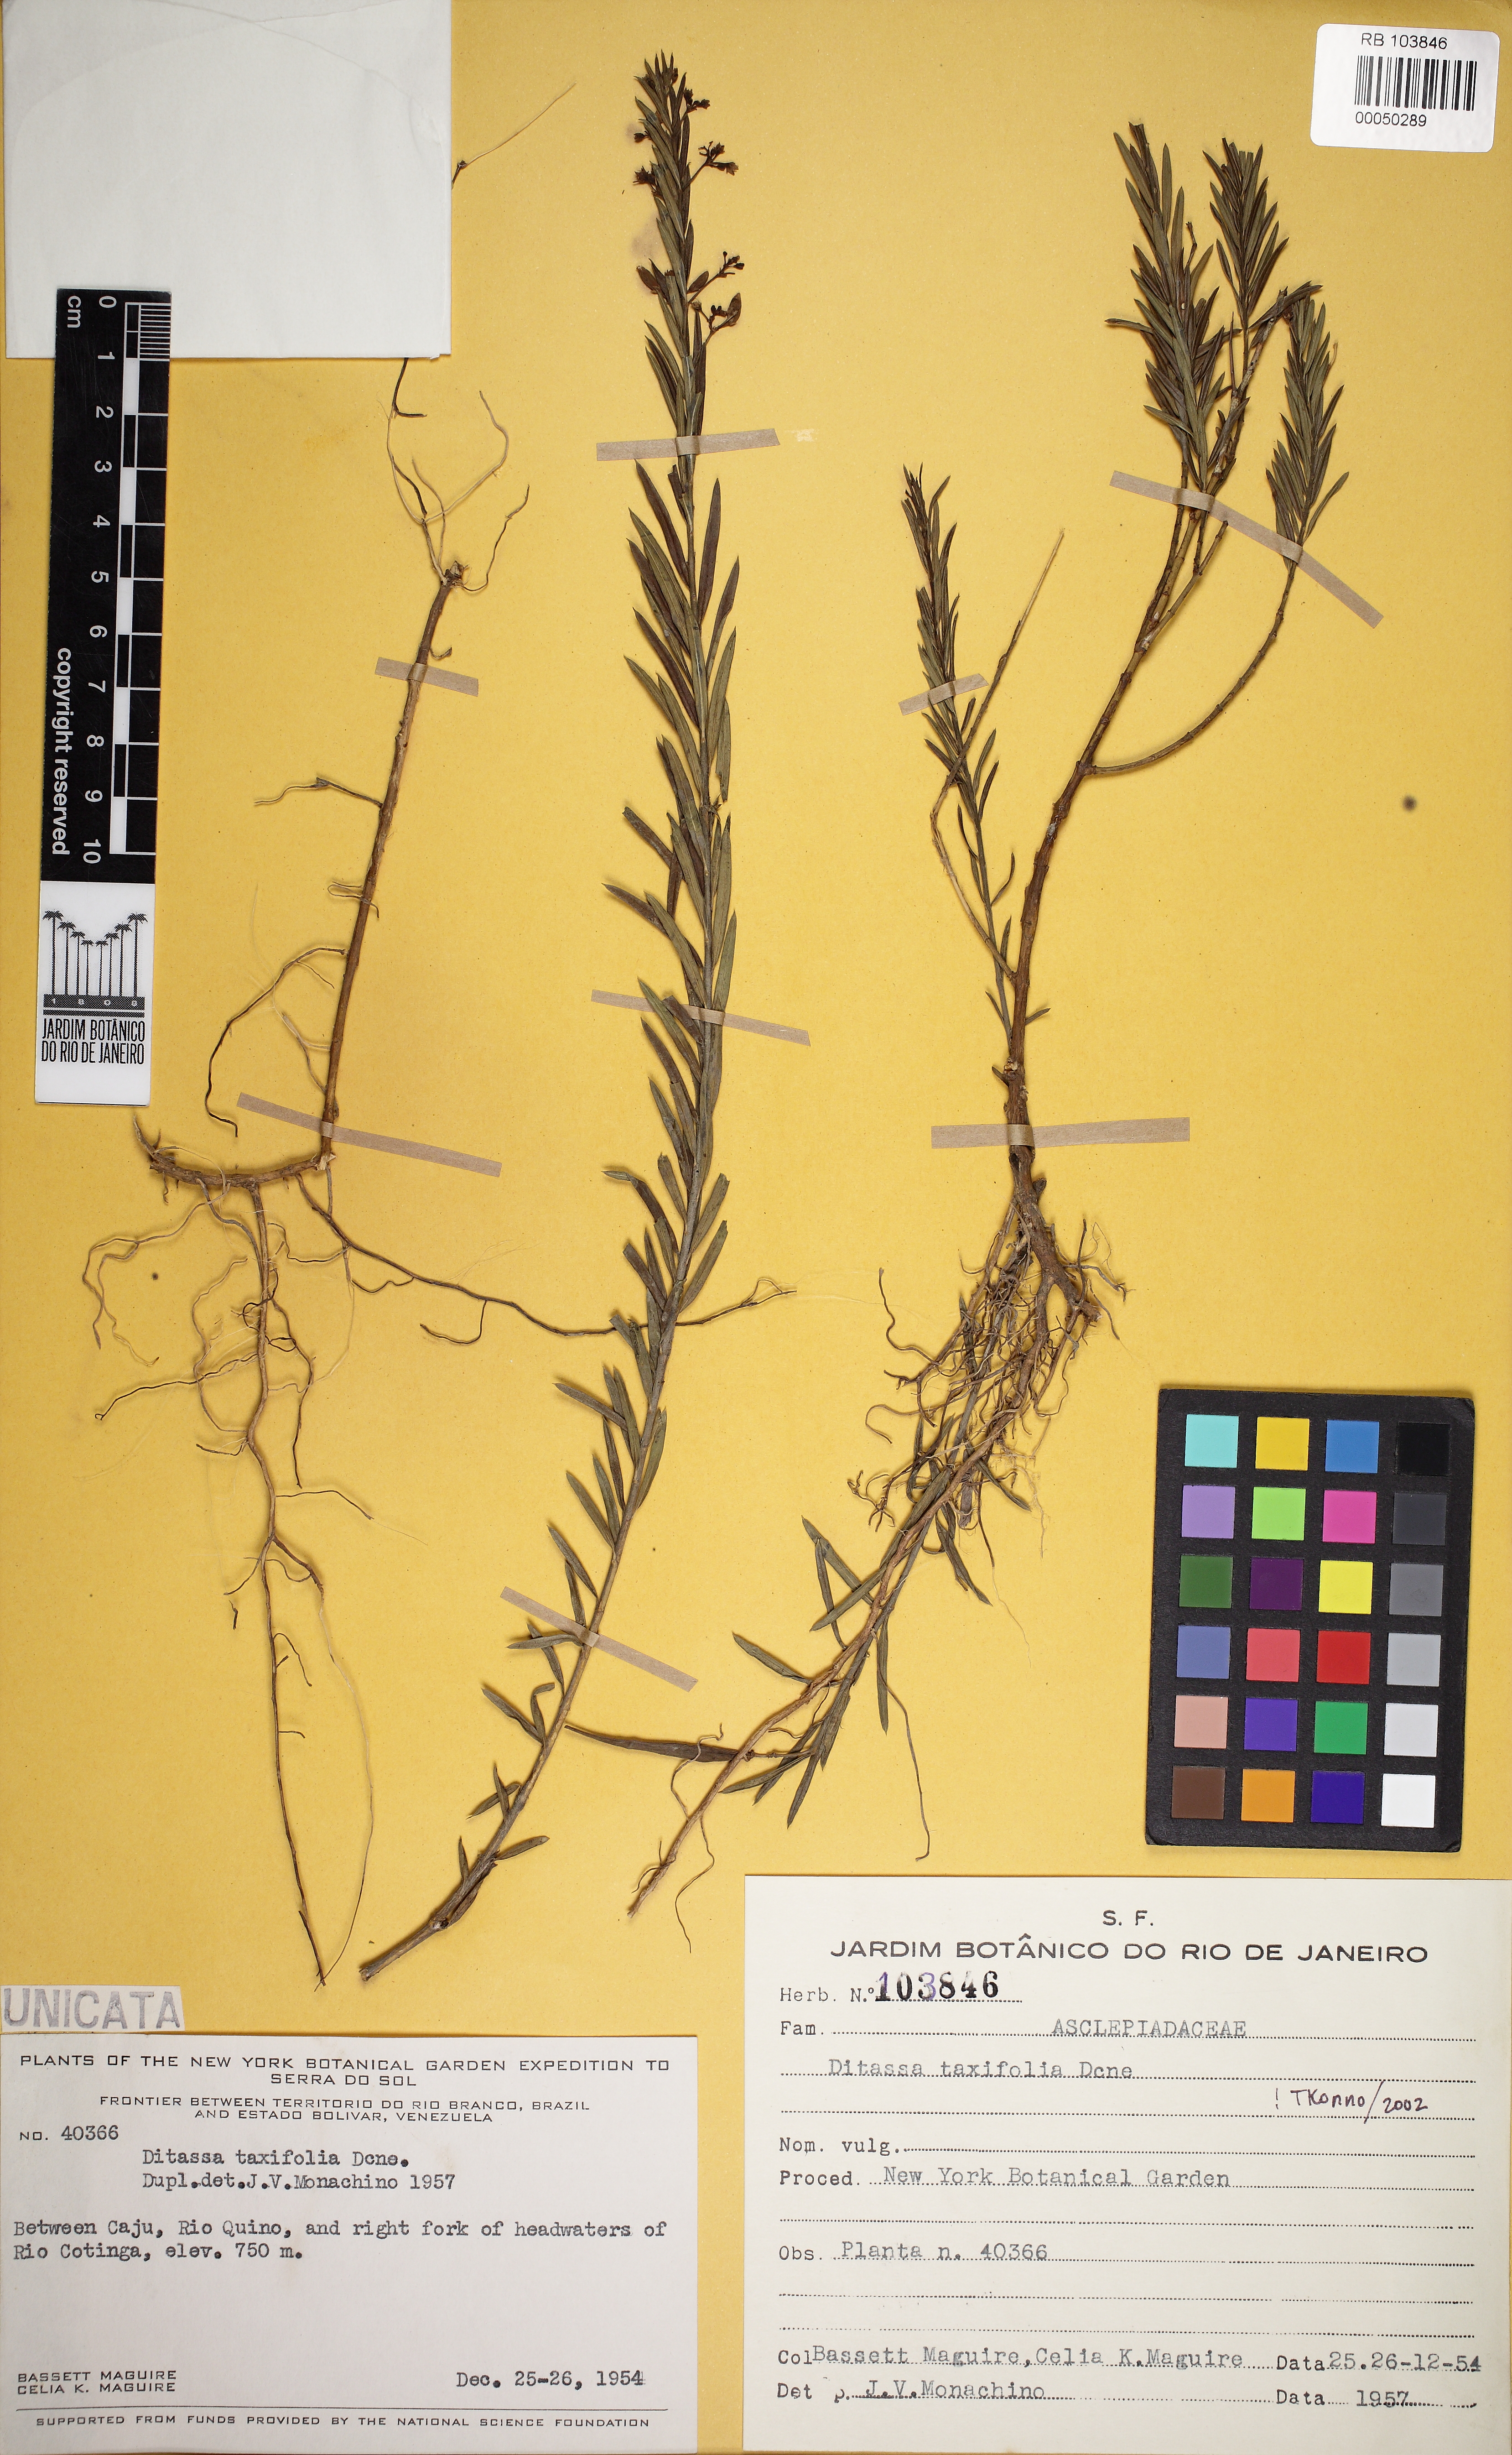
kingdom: Plantae
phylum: Tracheophyta
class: Magnoliopsida
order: Gentianales
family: Apocynaceae
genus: Ditassa
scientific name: Ditassa taxifolia
